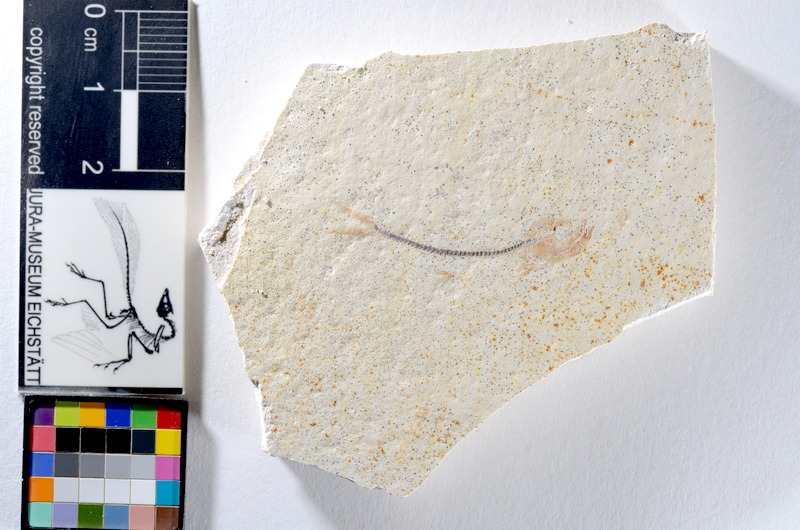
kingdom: Animalia
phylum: Chordata
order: Salmoniformes
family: Orthogonikleithridae
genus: Orthogonikleithrus
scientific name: Orthogonikleithrus hoelli
